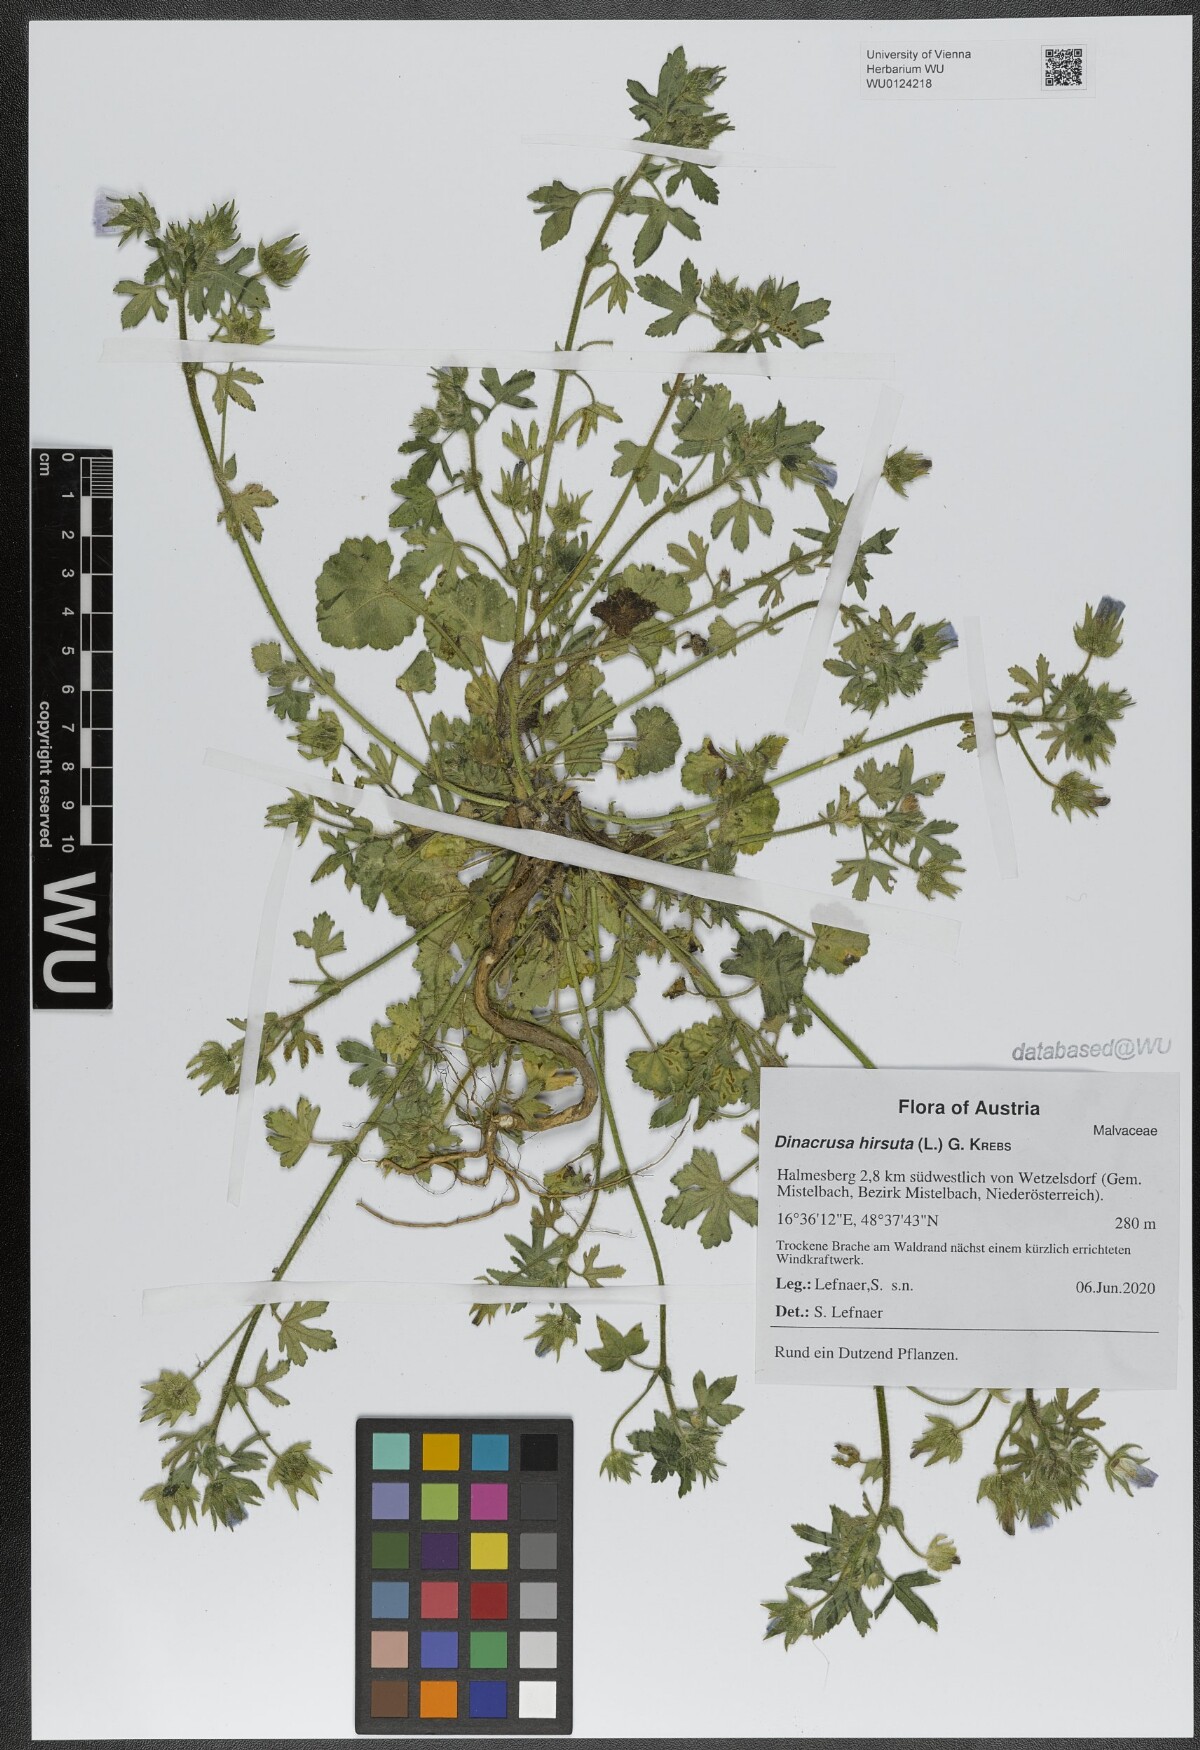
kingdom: Plantae
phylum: Tracheophyta
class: Magnoliopsida
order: Malvales
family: Malvaceae
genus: Althaea
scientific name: Althaea hirsuta
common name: Rough marsh-mallow
